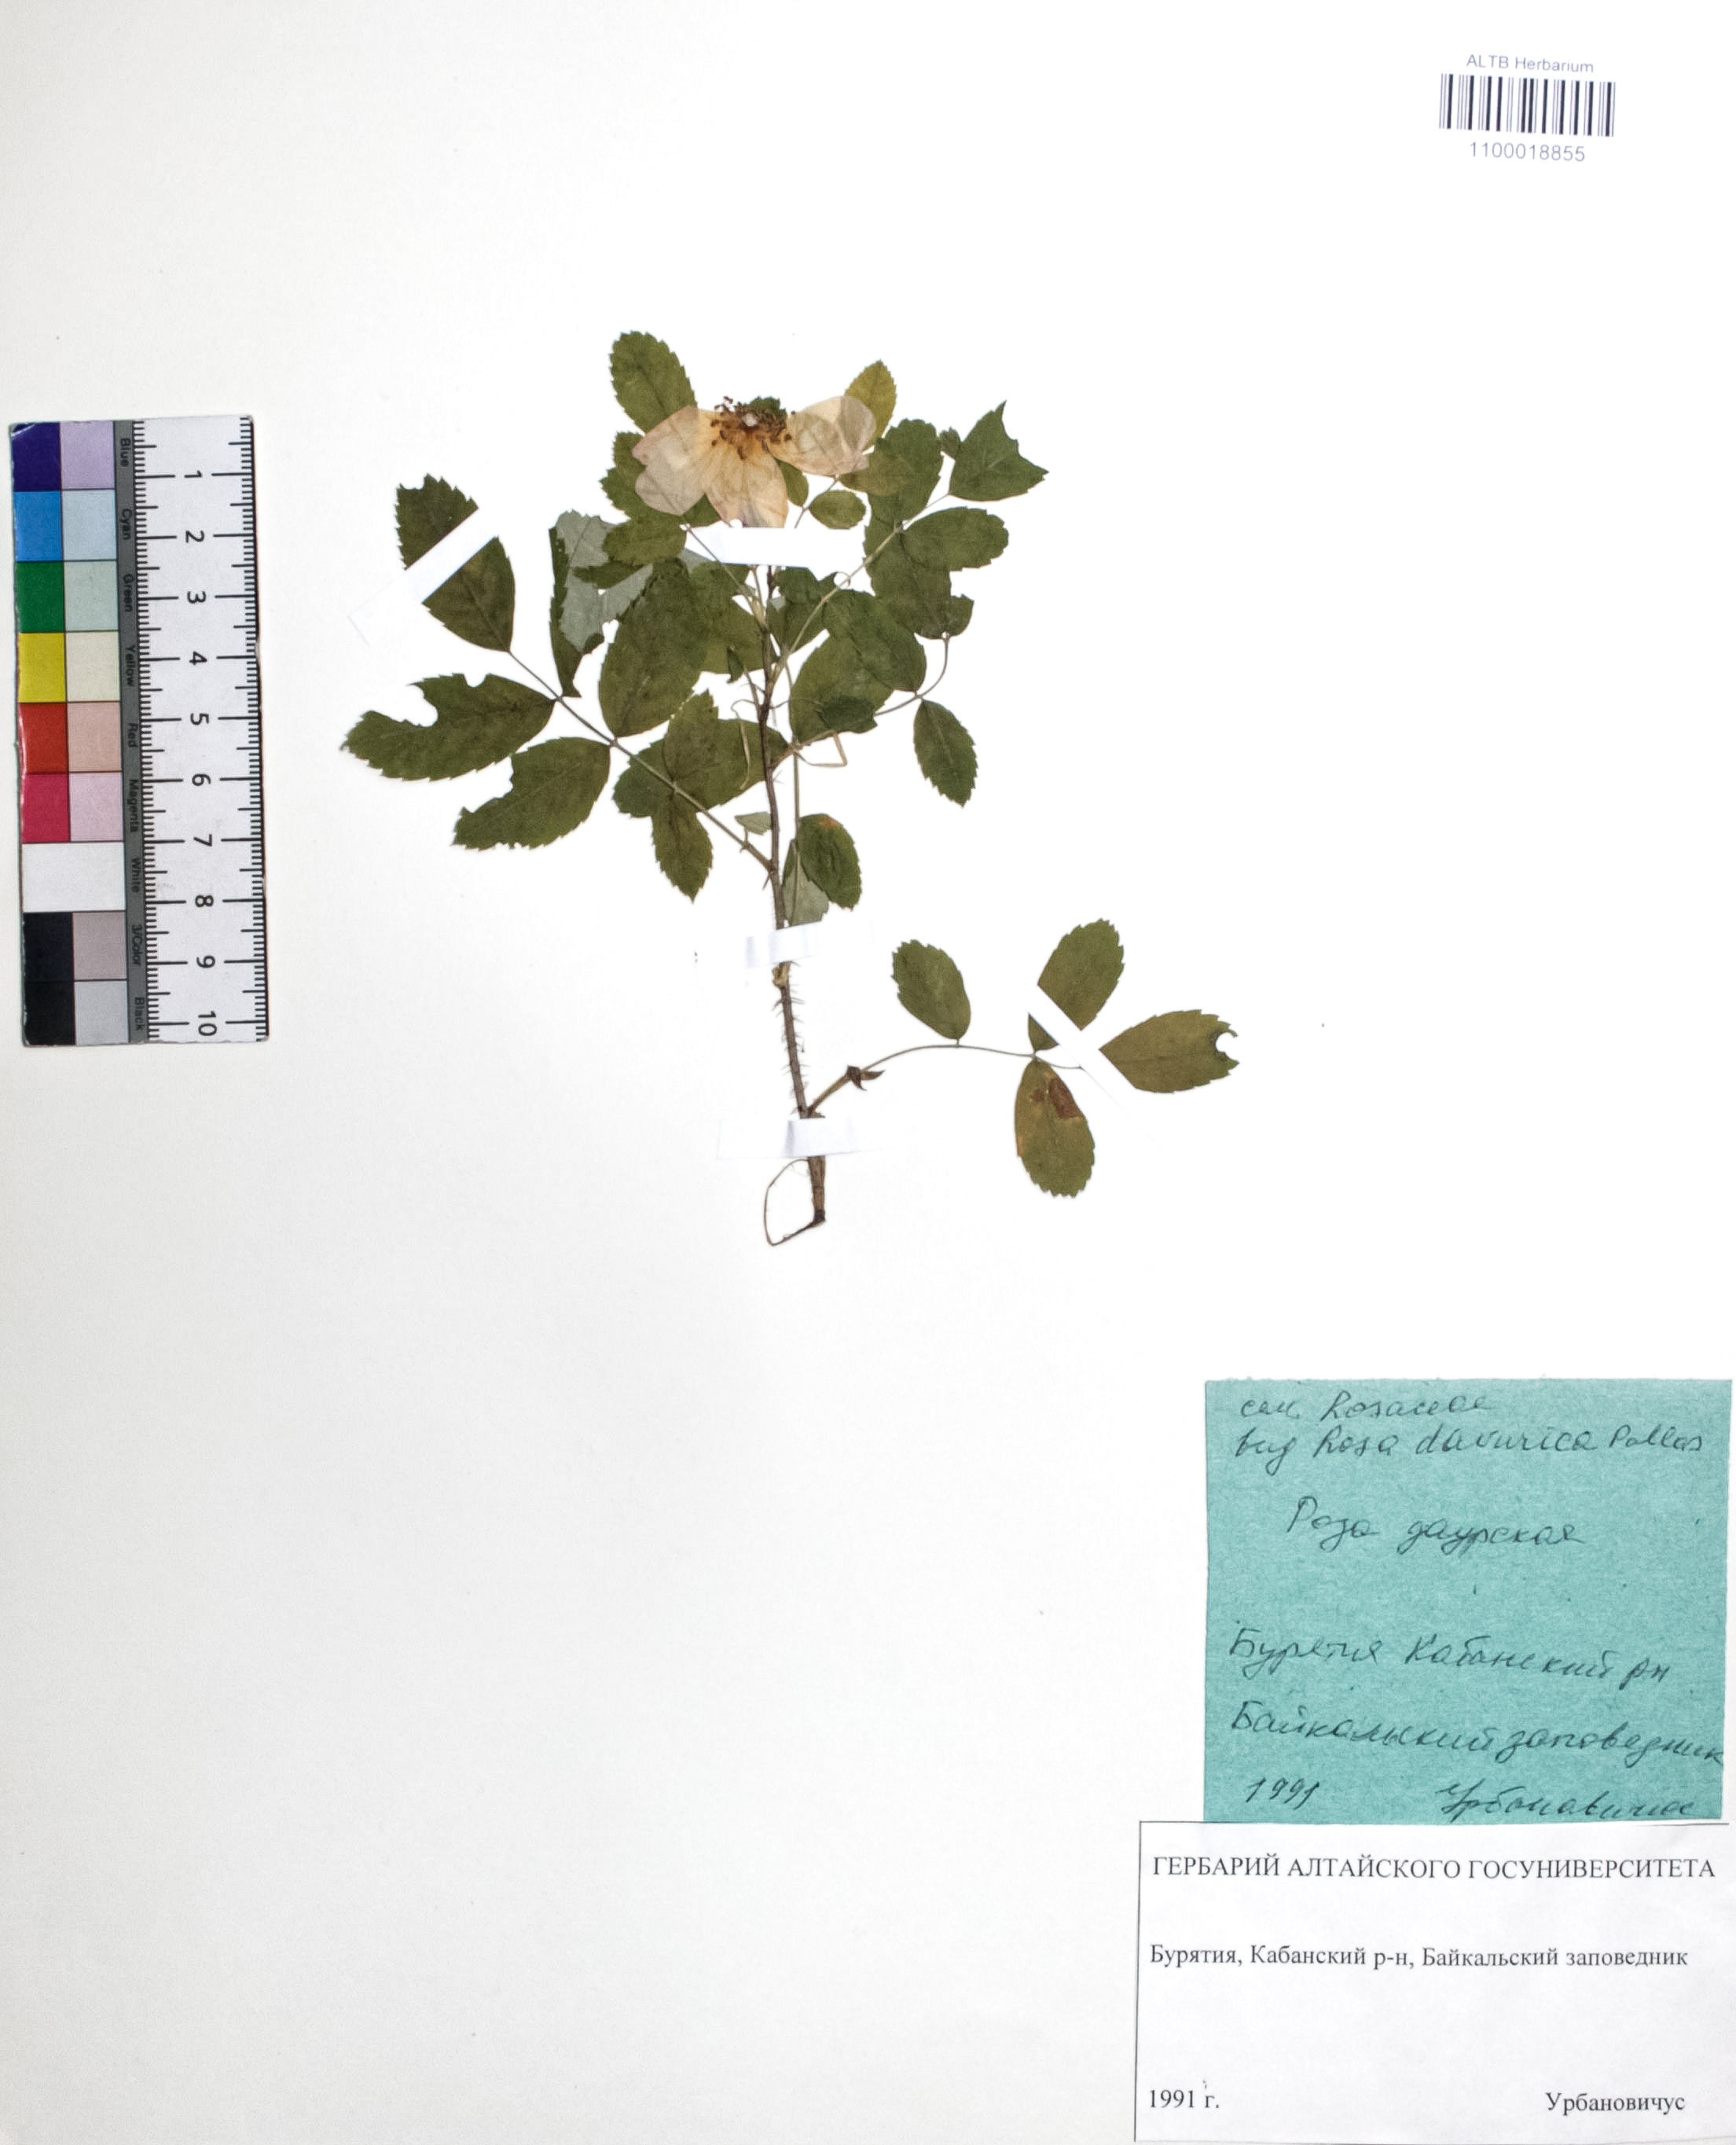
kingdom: Plantae
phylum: Tracheophyta
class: Magnoliopsida
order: Rosales
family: Rosaceae
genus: Rosa
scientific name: Rosa davurica
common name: Amur rose
